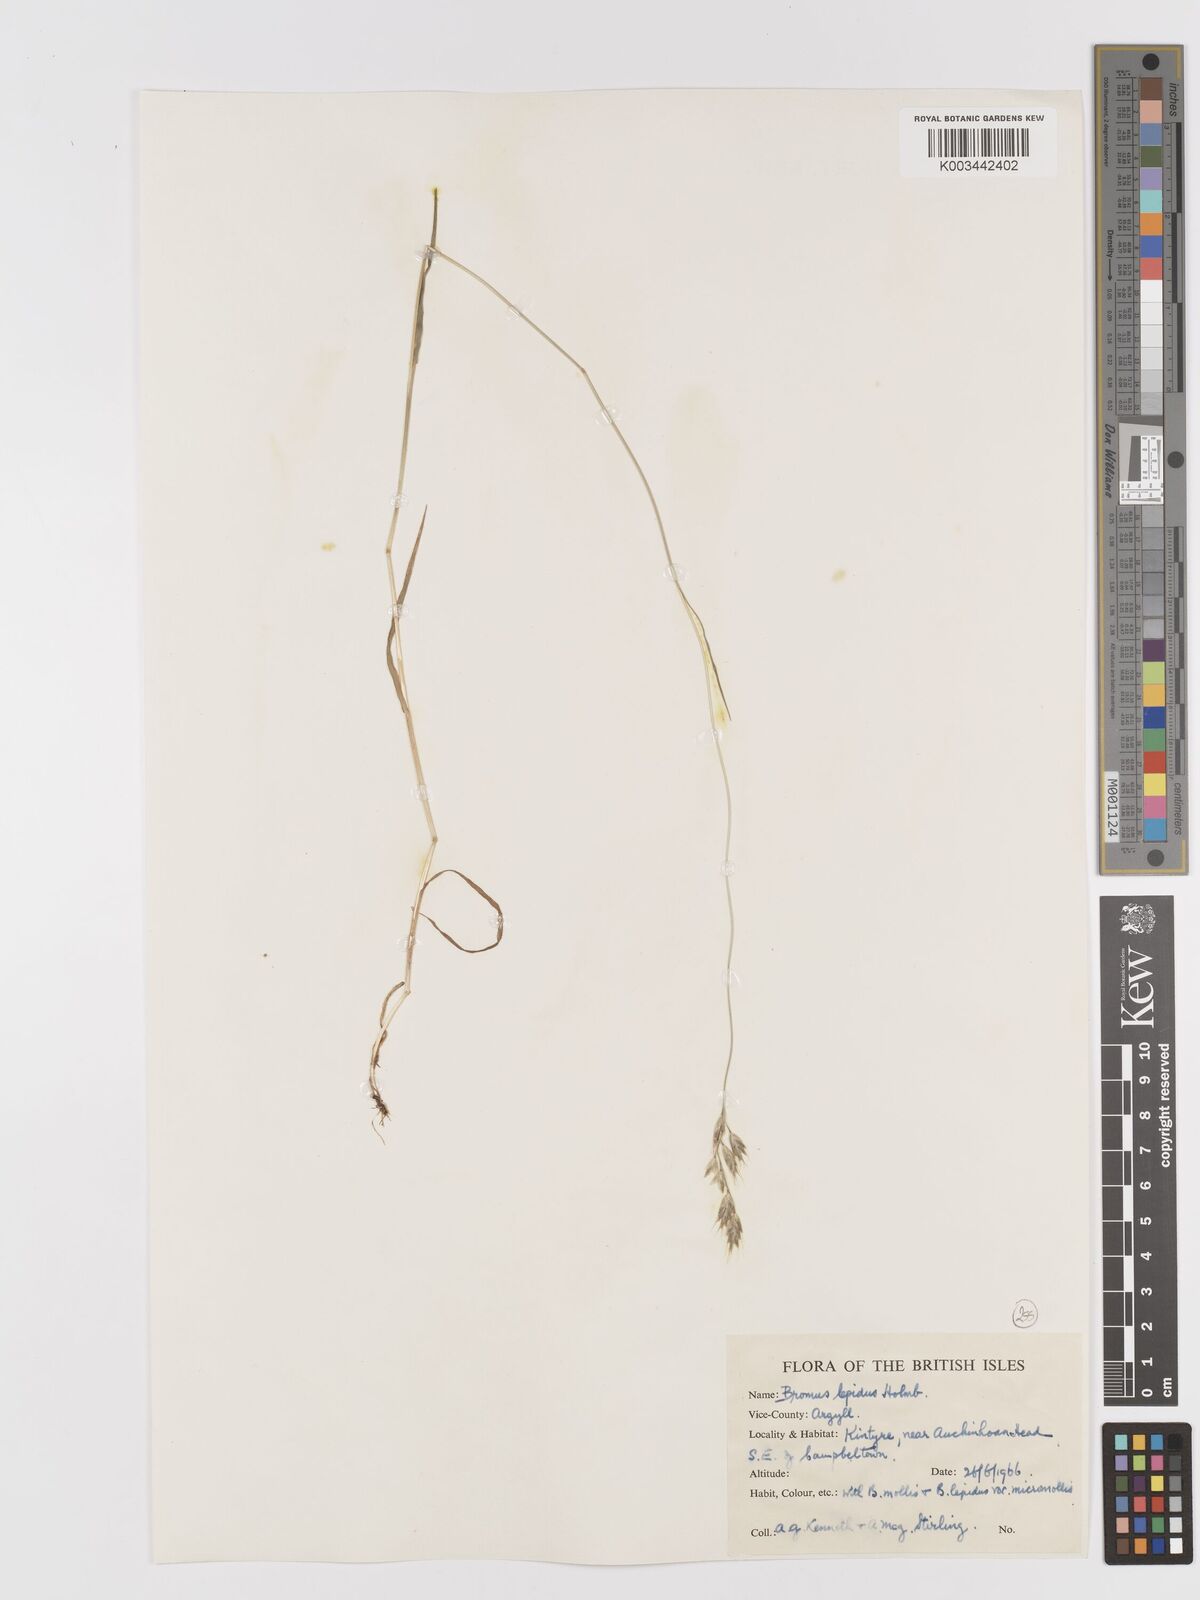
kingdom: Plantae
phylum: Tracheophyta
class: Liliopsida
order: Poales
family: Poaceae
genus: Bromus
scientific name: Bromus lepidus
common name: Slender soft-brome
